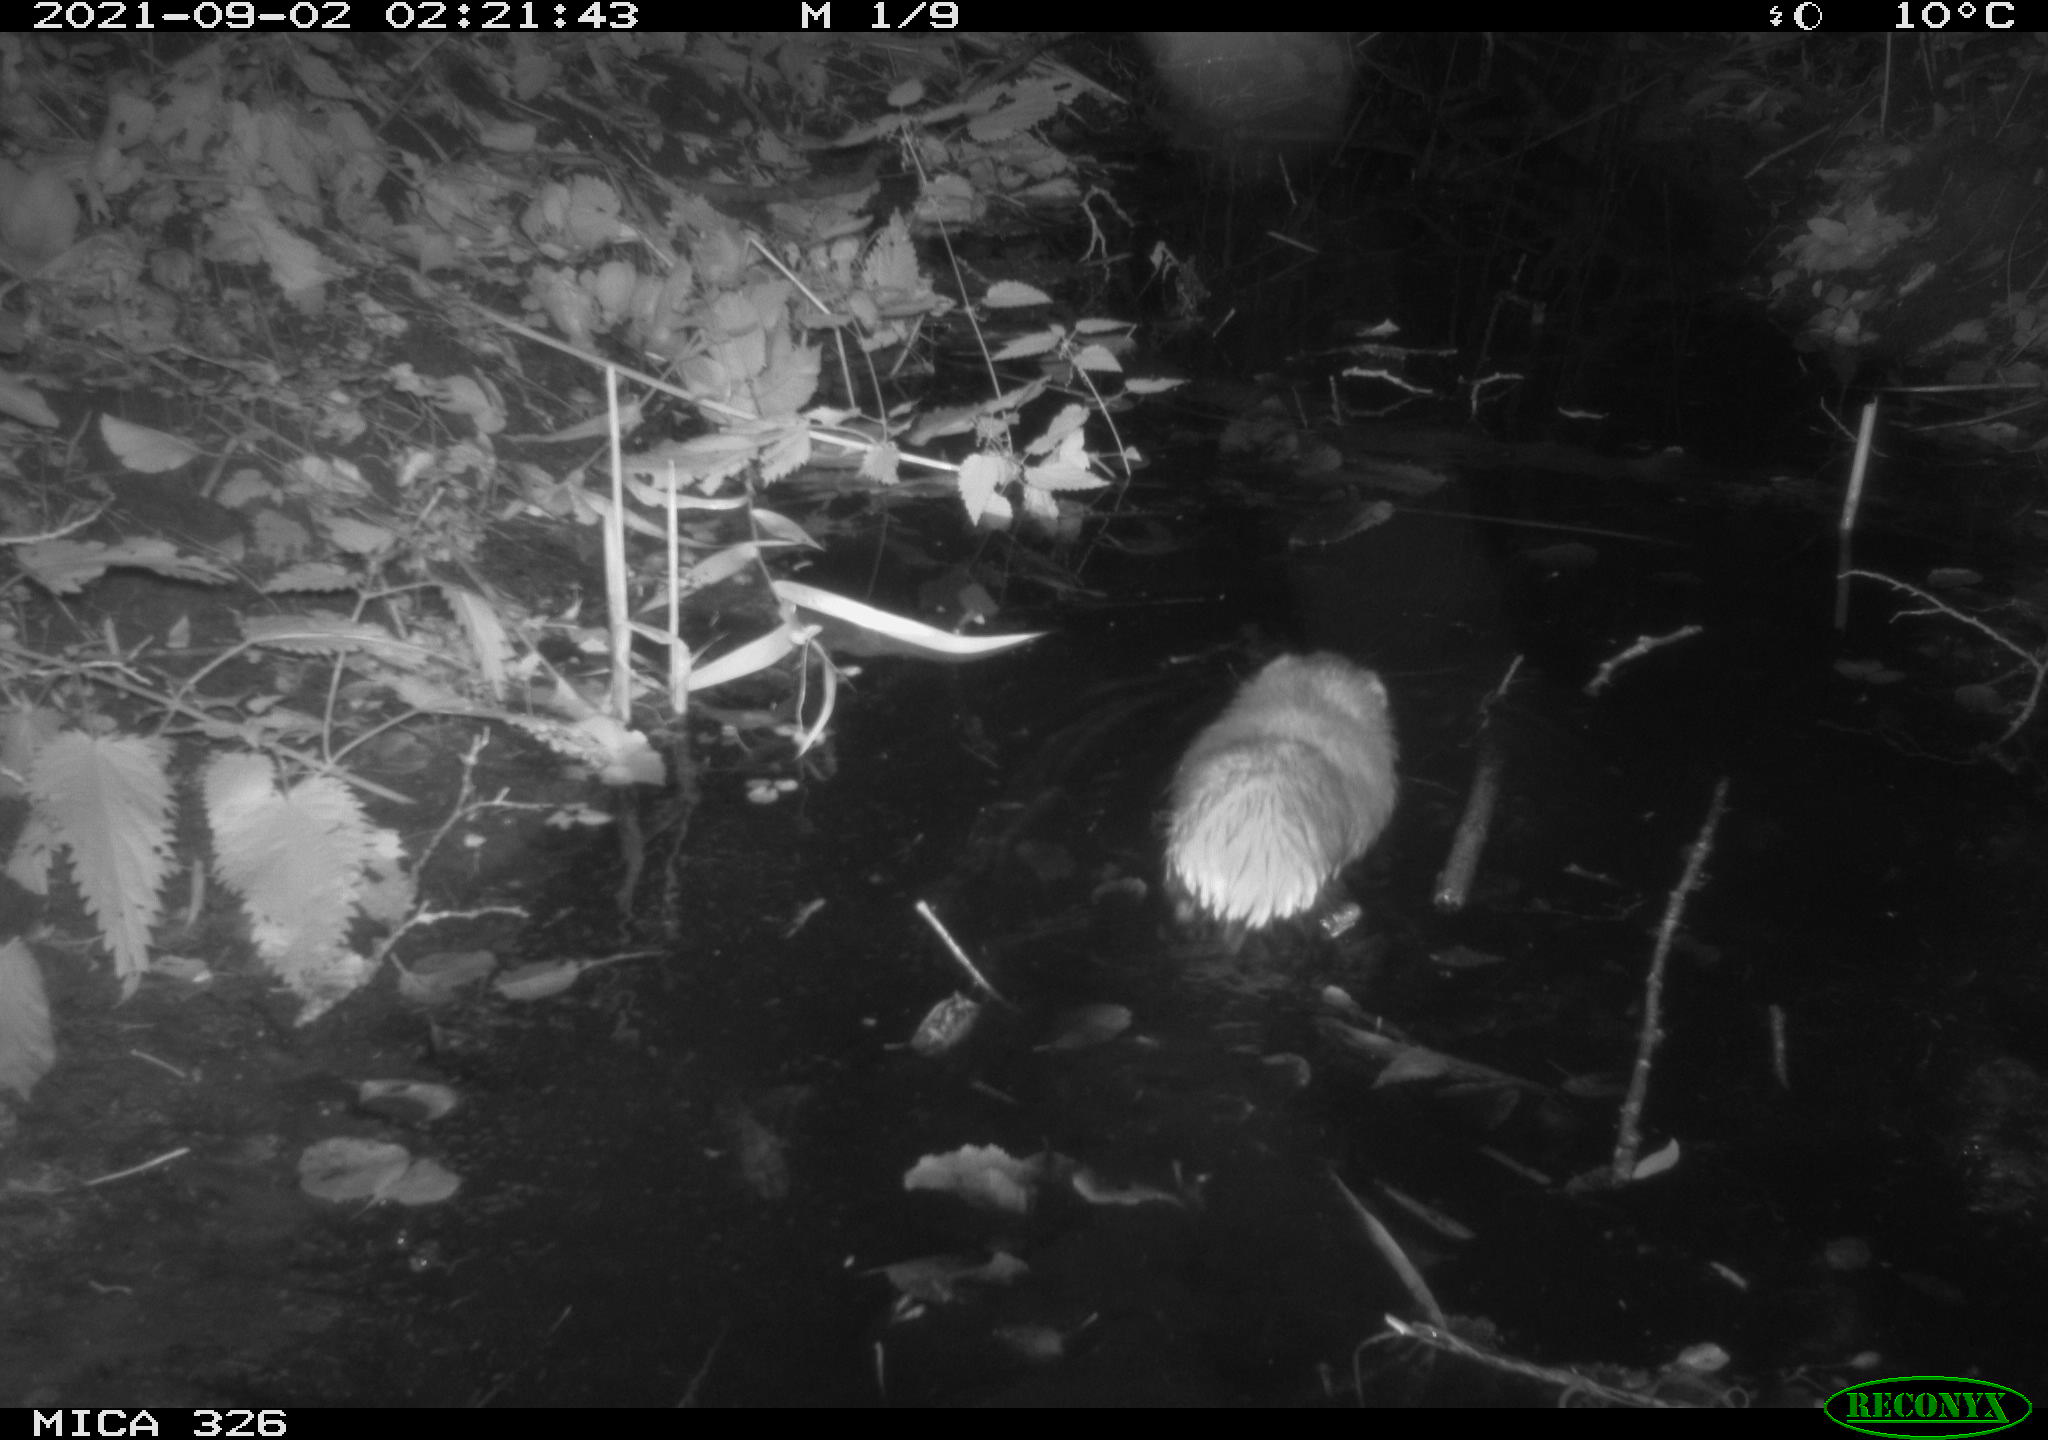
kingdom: Animalia
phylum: Chordata
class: Mammalia
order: Rodentia
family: Cricetidae
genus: Ondatra
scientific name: Ondatra zibethicus
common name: Muskrat
